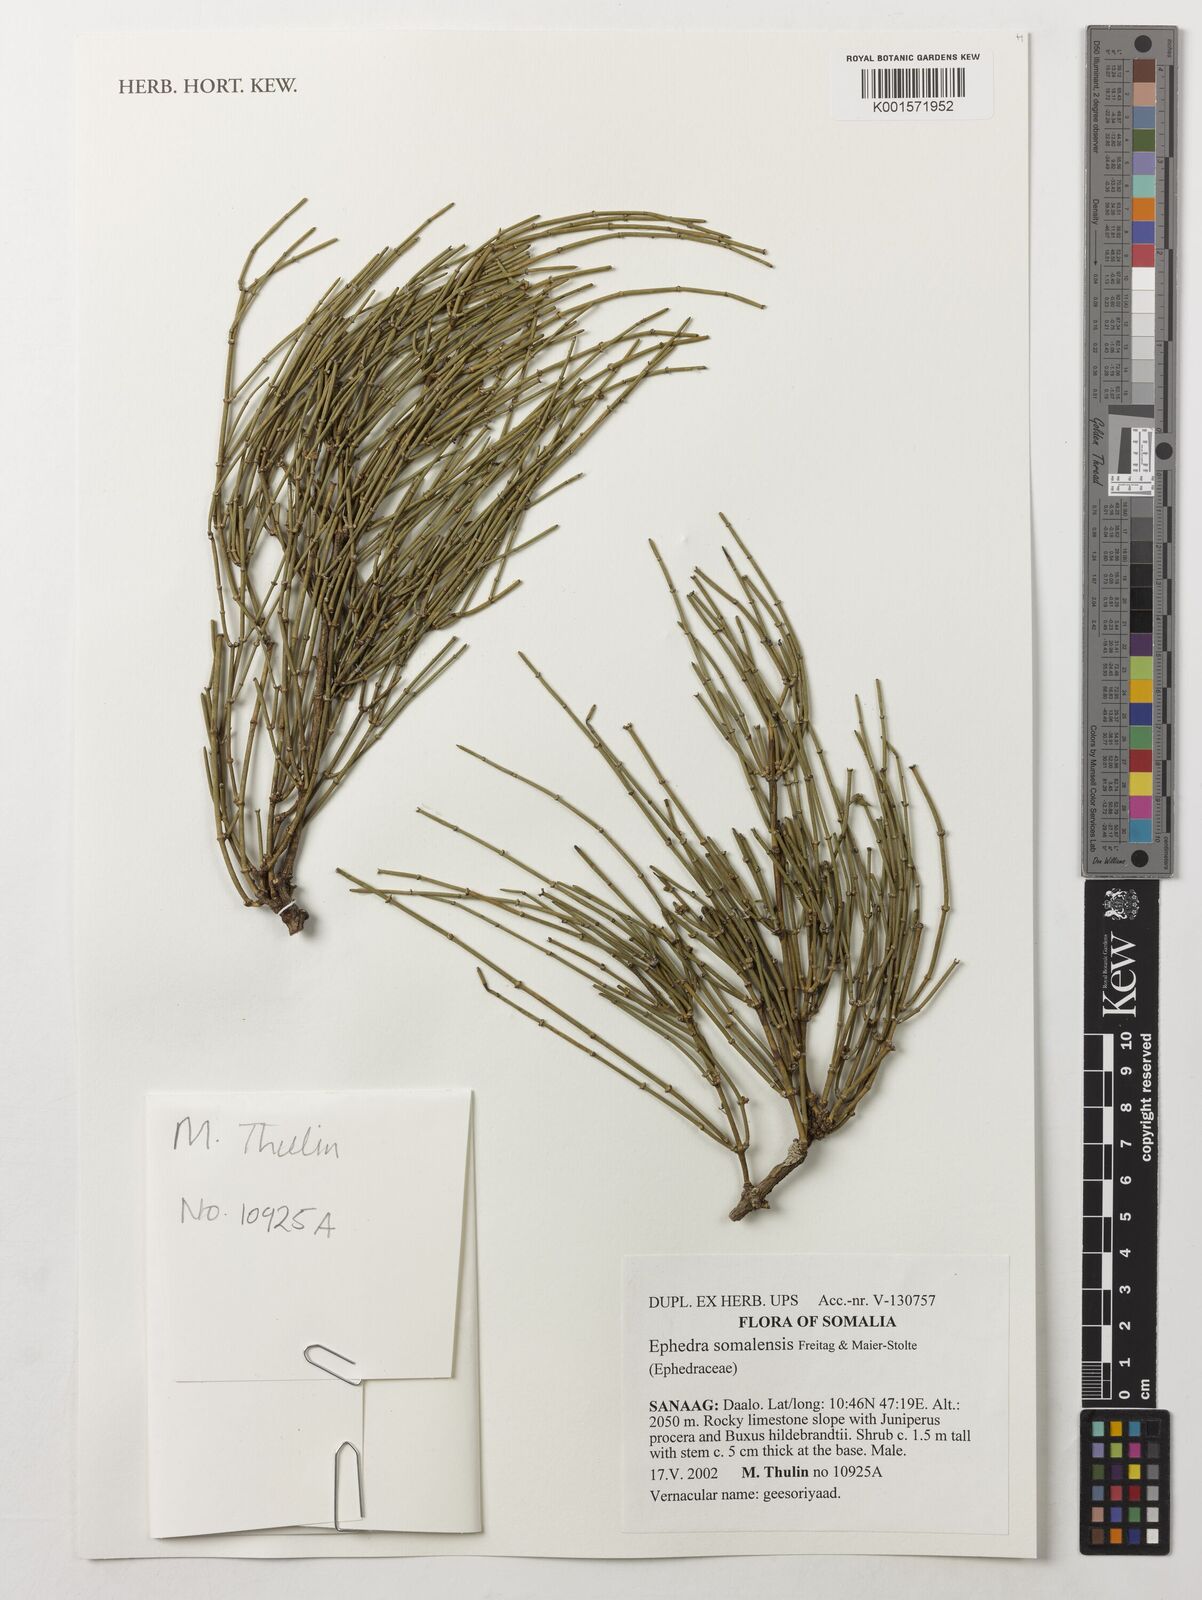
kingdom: Plantae
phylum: Tracheophyta
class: Gnetopsida
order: Ephedrales
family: Ephedraceae
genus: Ephedra
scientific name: Ephedra somalensis
